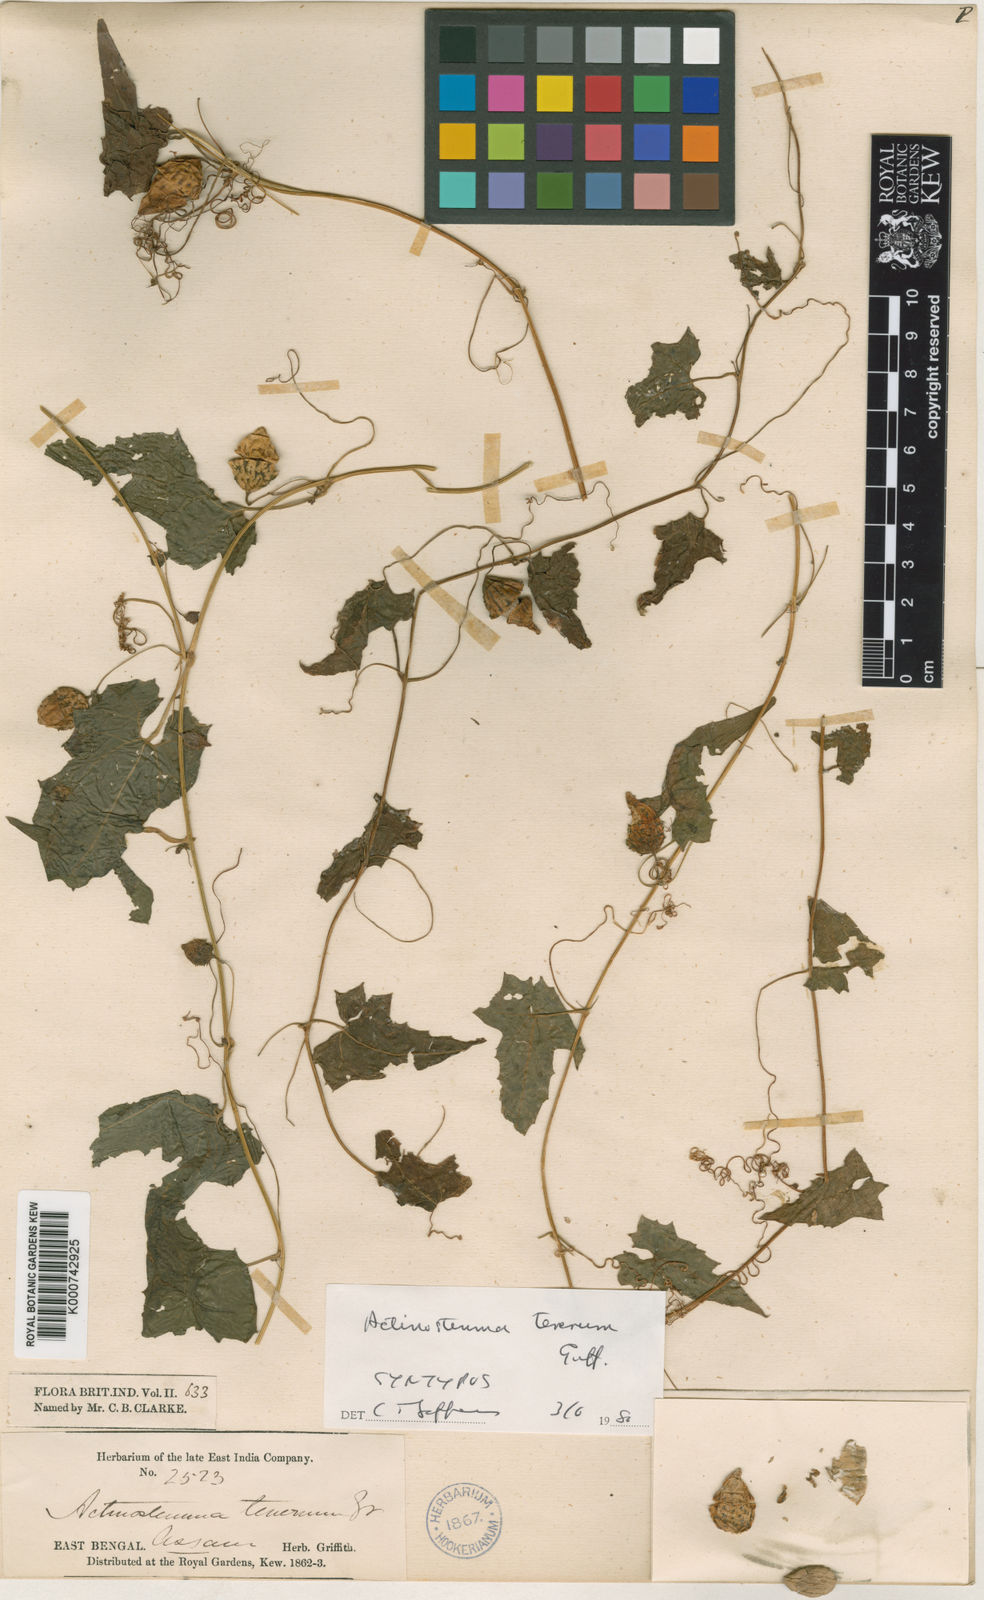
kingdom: Plantae
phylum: Tracheophyta
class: Magnoliopsida
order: Cucurbitales
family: Cucurbitaceae
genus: Actinostemma
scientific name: Actinostemma tenerum
